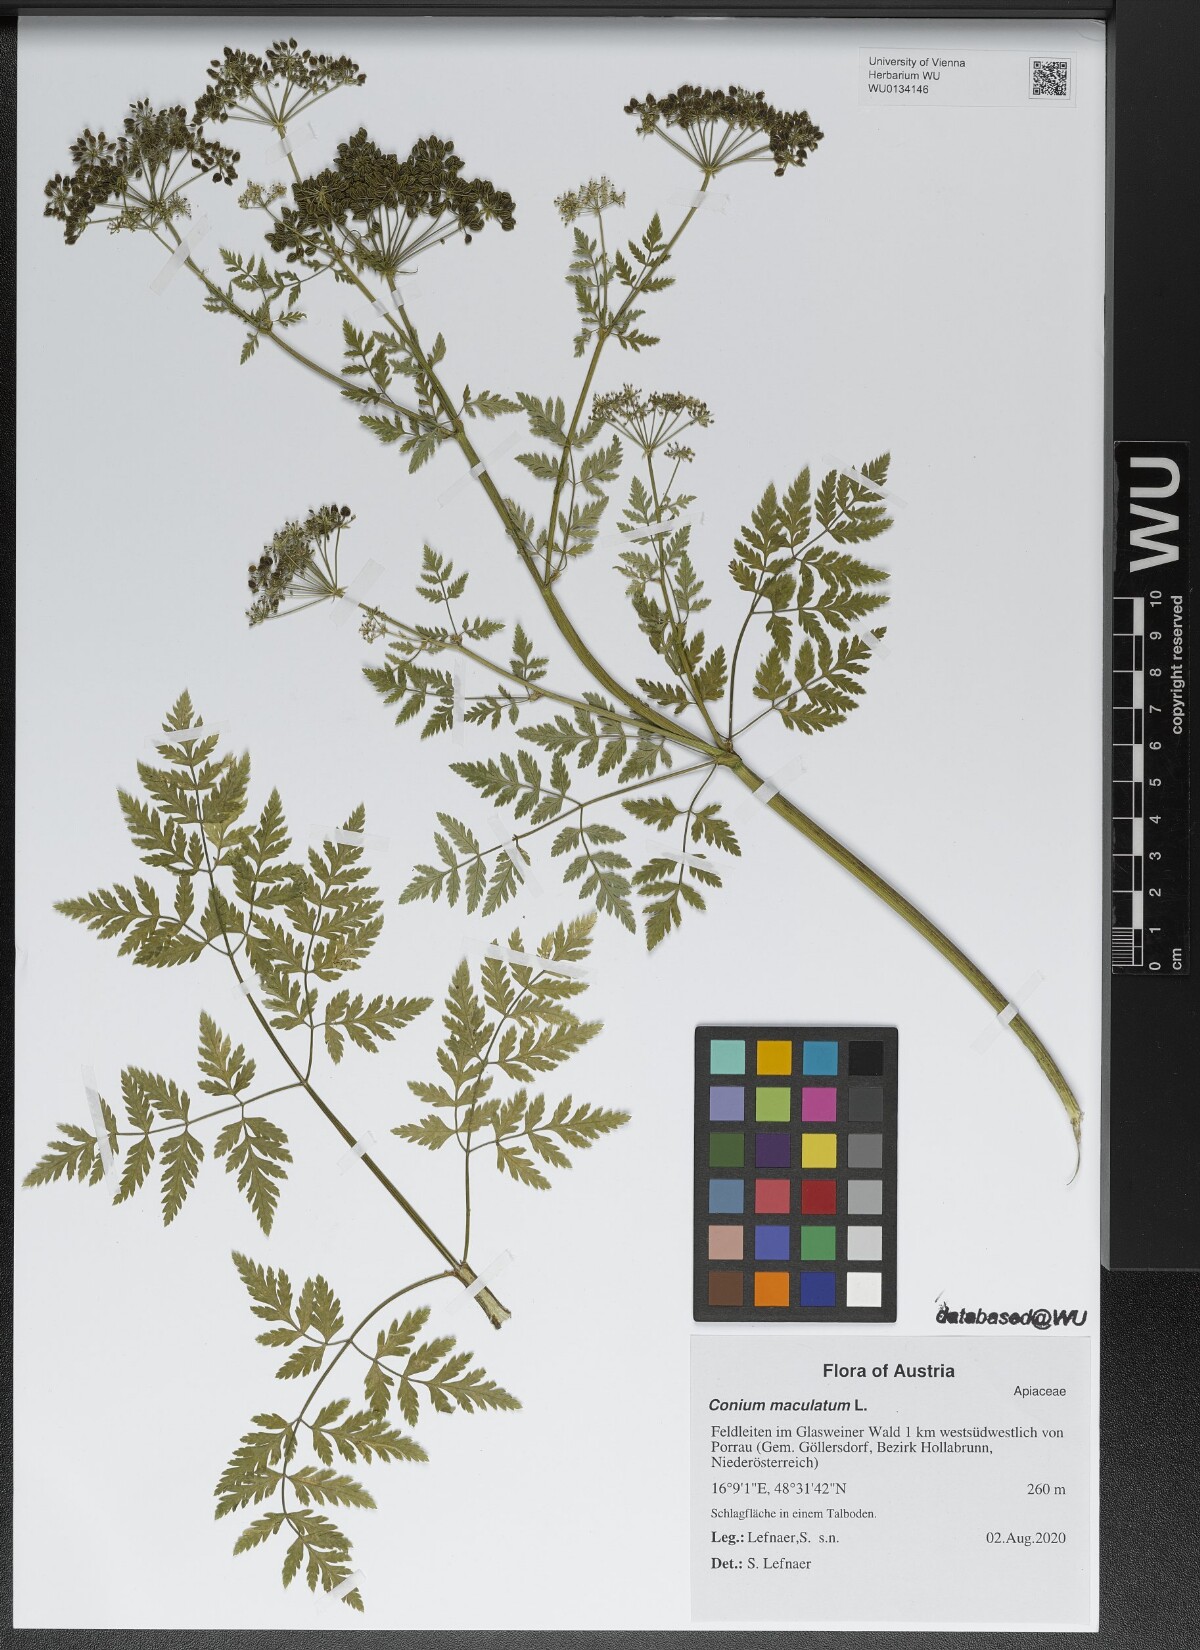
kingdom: Plantae
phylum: Tracheophyta
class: Magnoliopsida
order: Apiales
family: Apiaceae
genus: Conium
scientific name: Conium maculatum
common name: Hemlock
